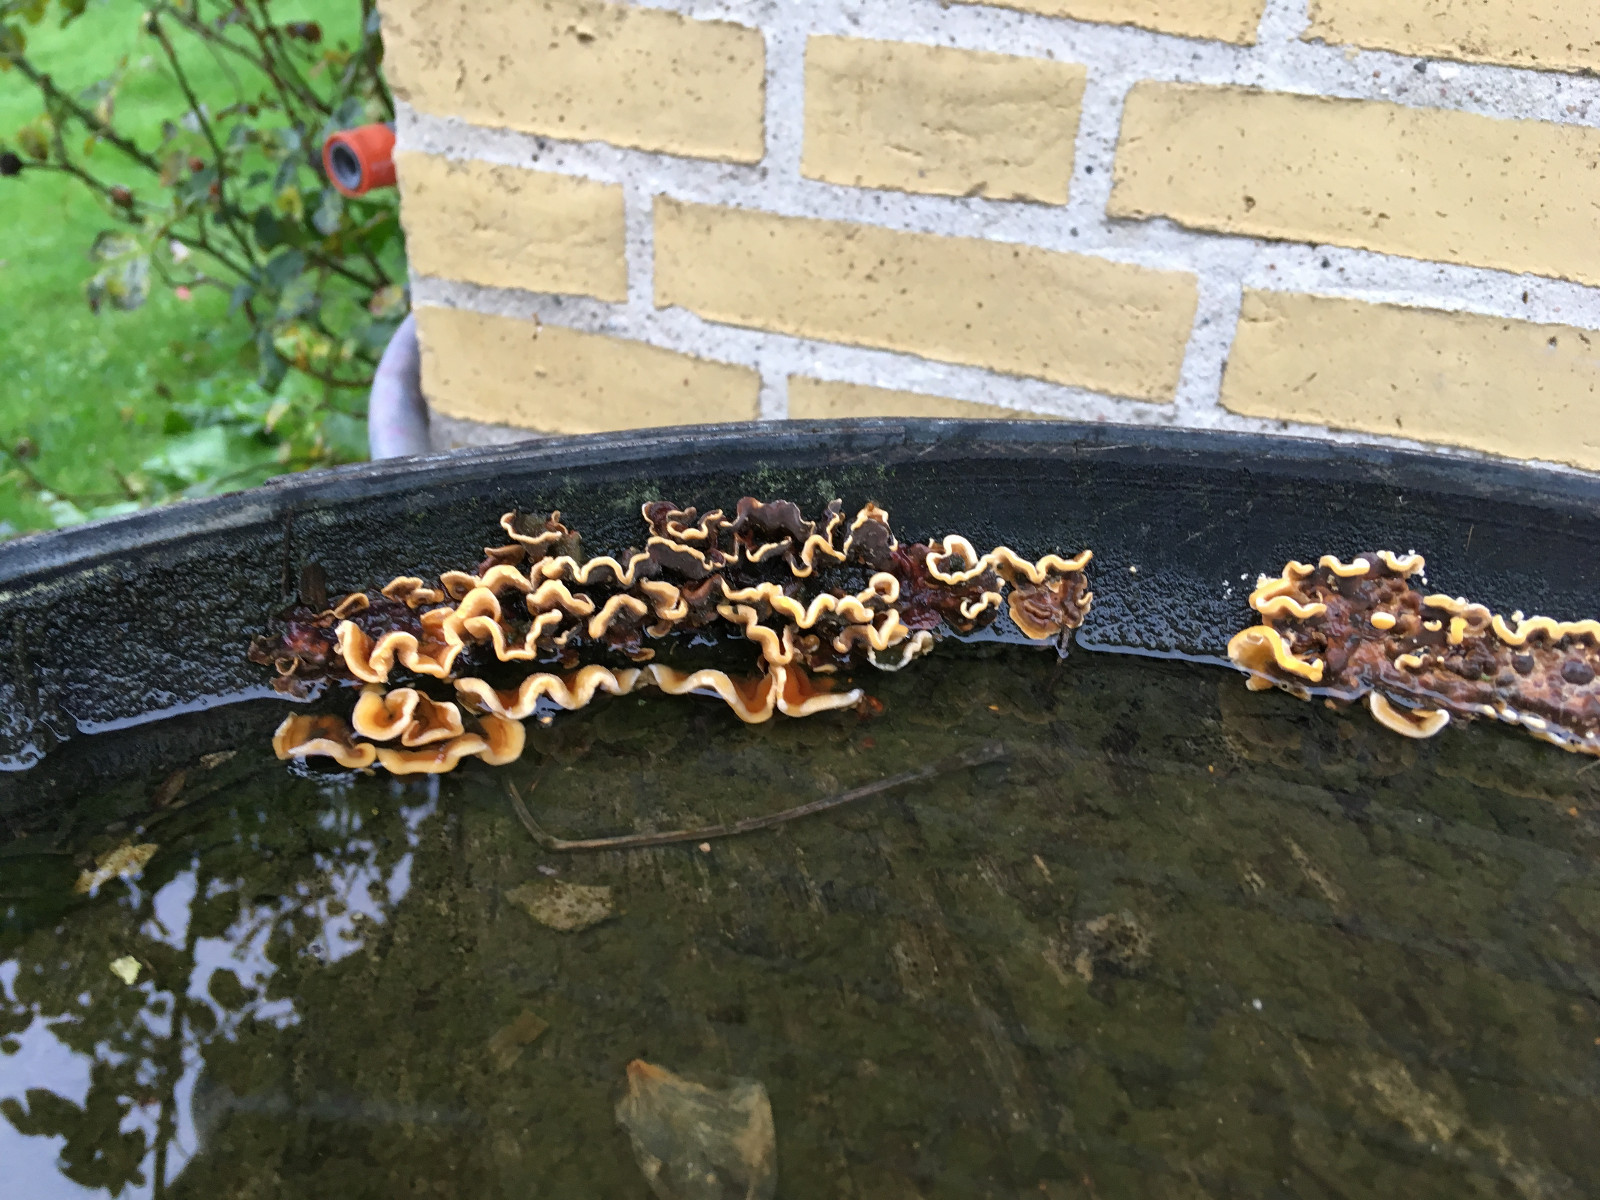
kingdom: Fungi
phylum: Basidiomycota
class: Agaricomycetes
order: Russulales
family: Stereaceae
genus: Stereum
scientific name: Stereum hirsutum
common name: håret lædersvamp
